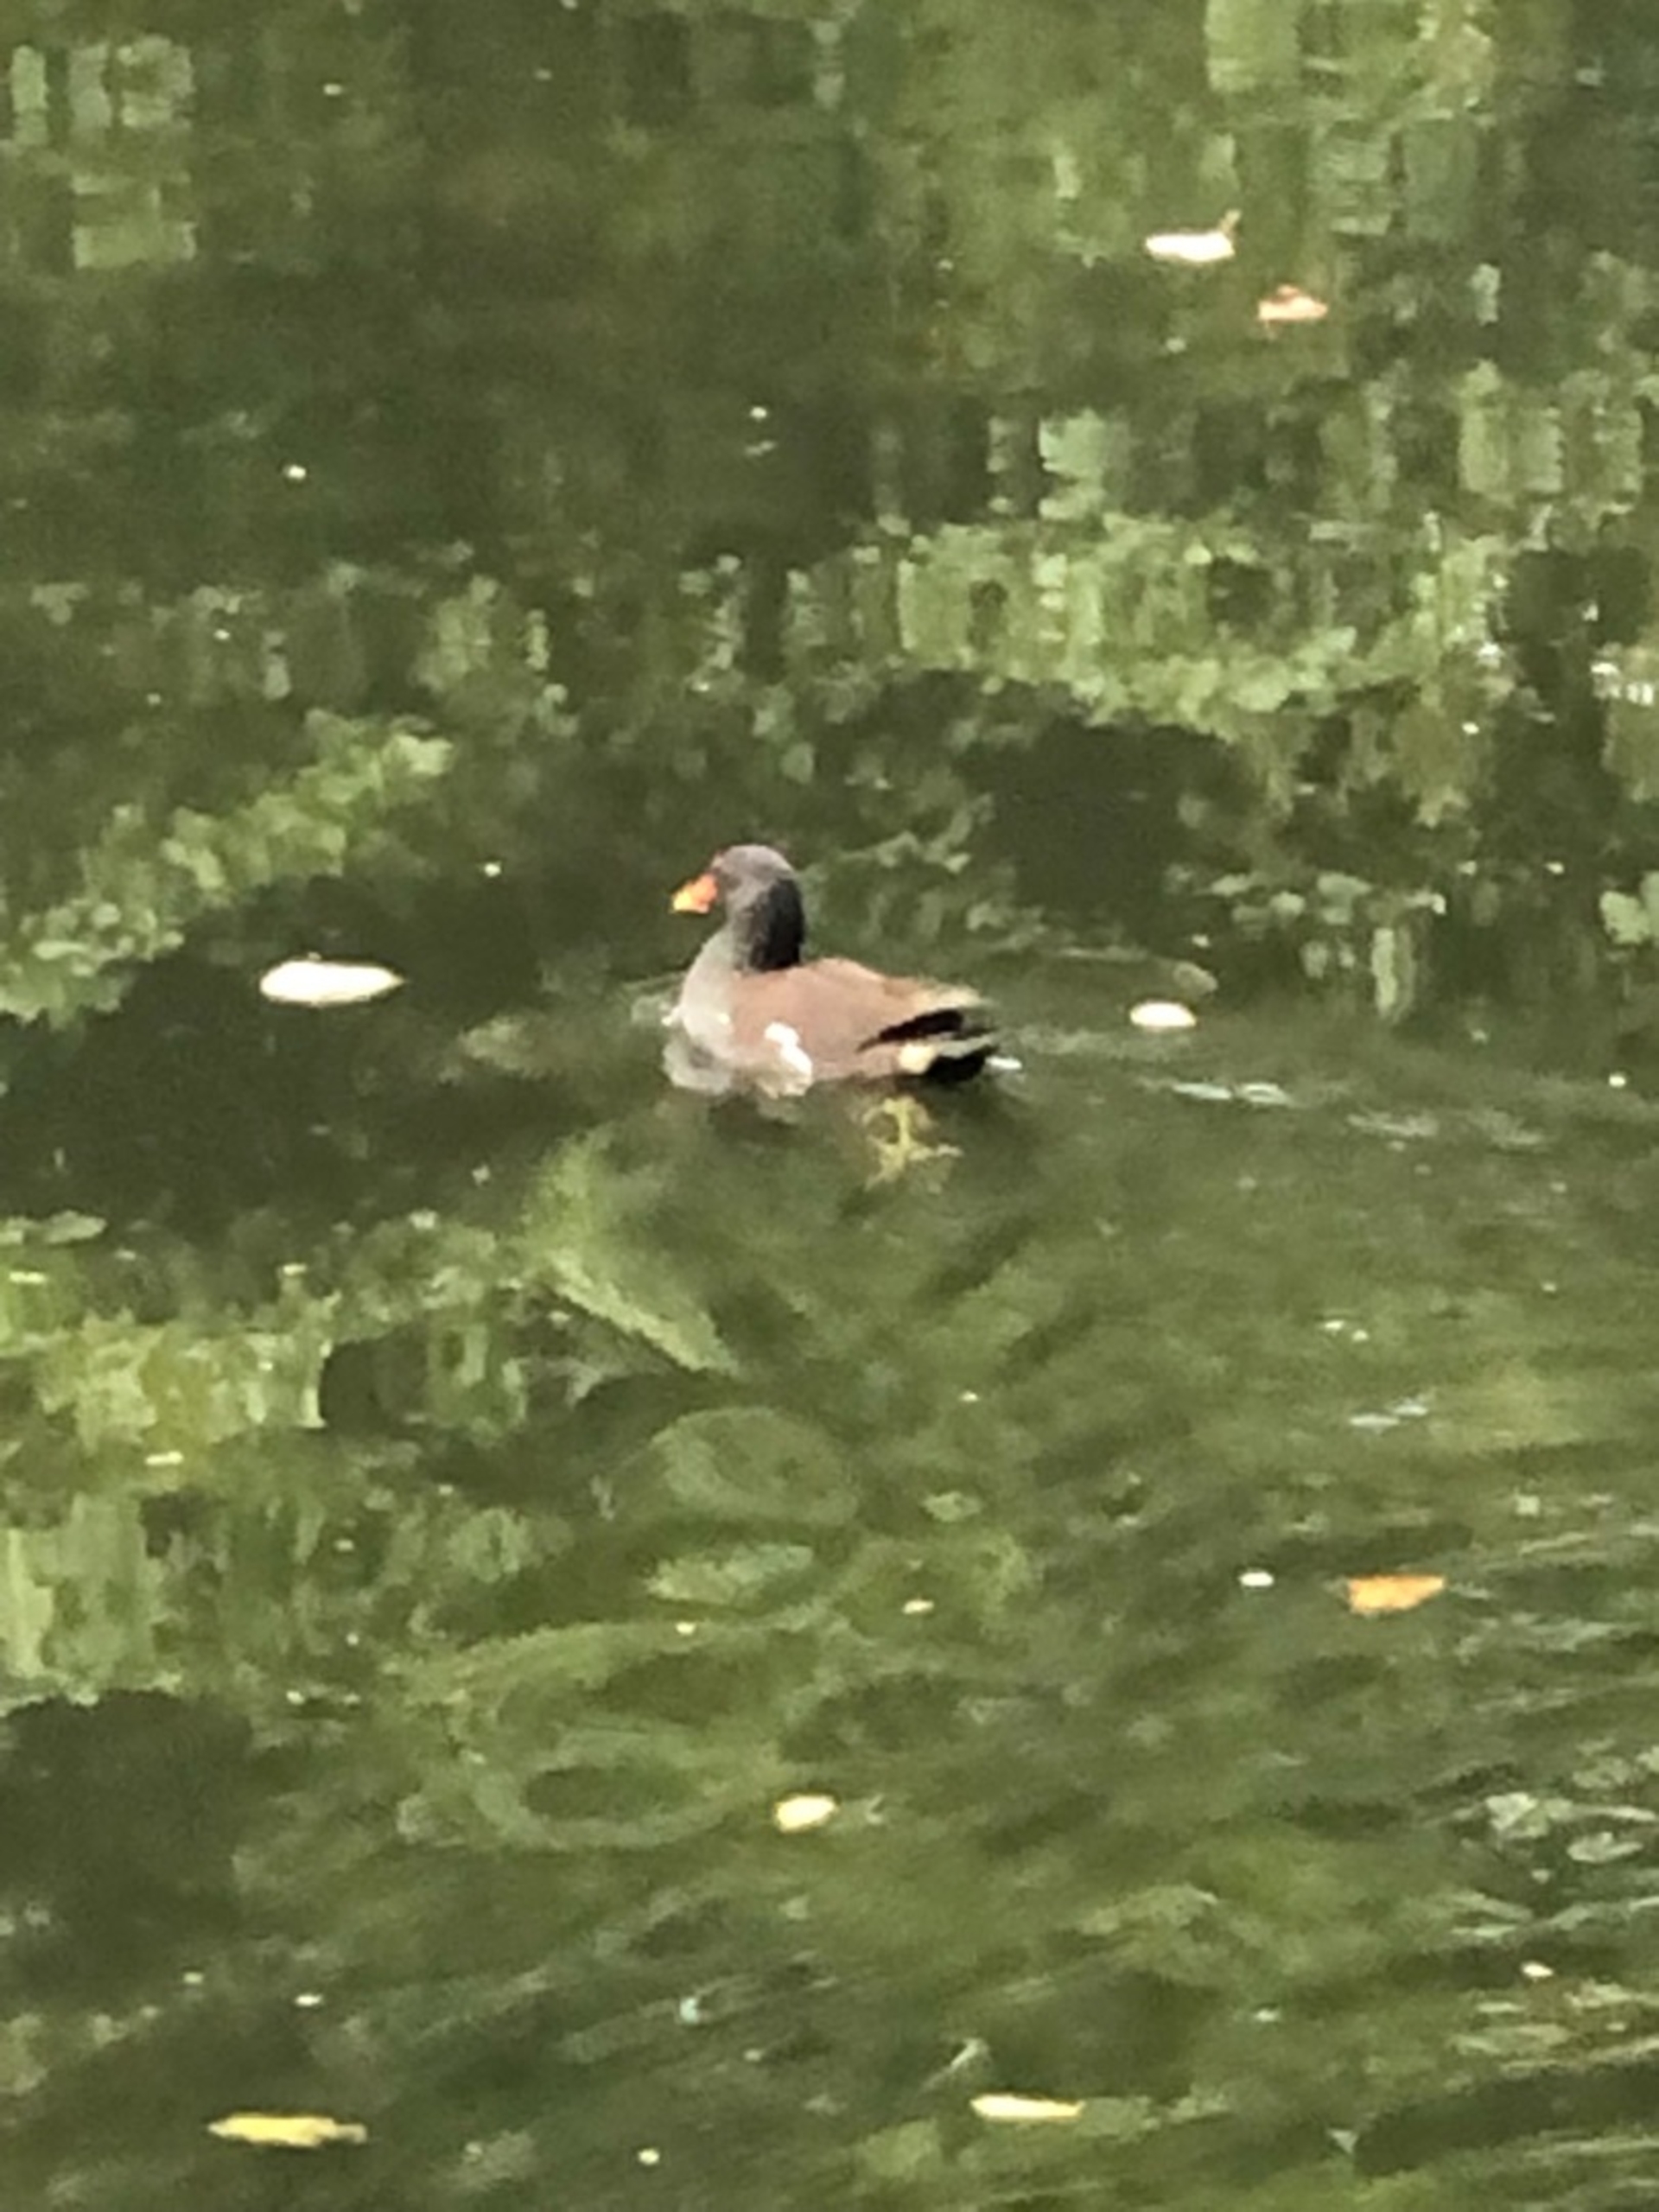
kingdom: Animalia
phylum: Chordata
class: Aves
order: Gruiformes
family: Rallidae
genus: Gallinula
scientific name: Gallinula chloropus
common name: Grønbenet rørhøne
